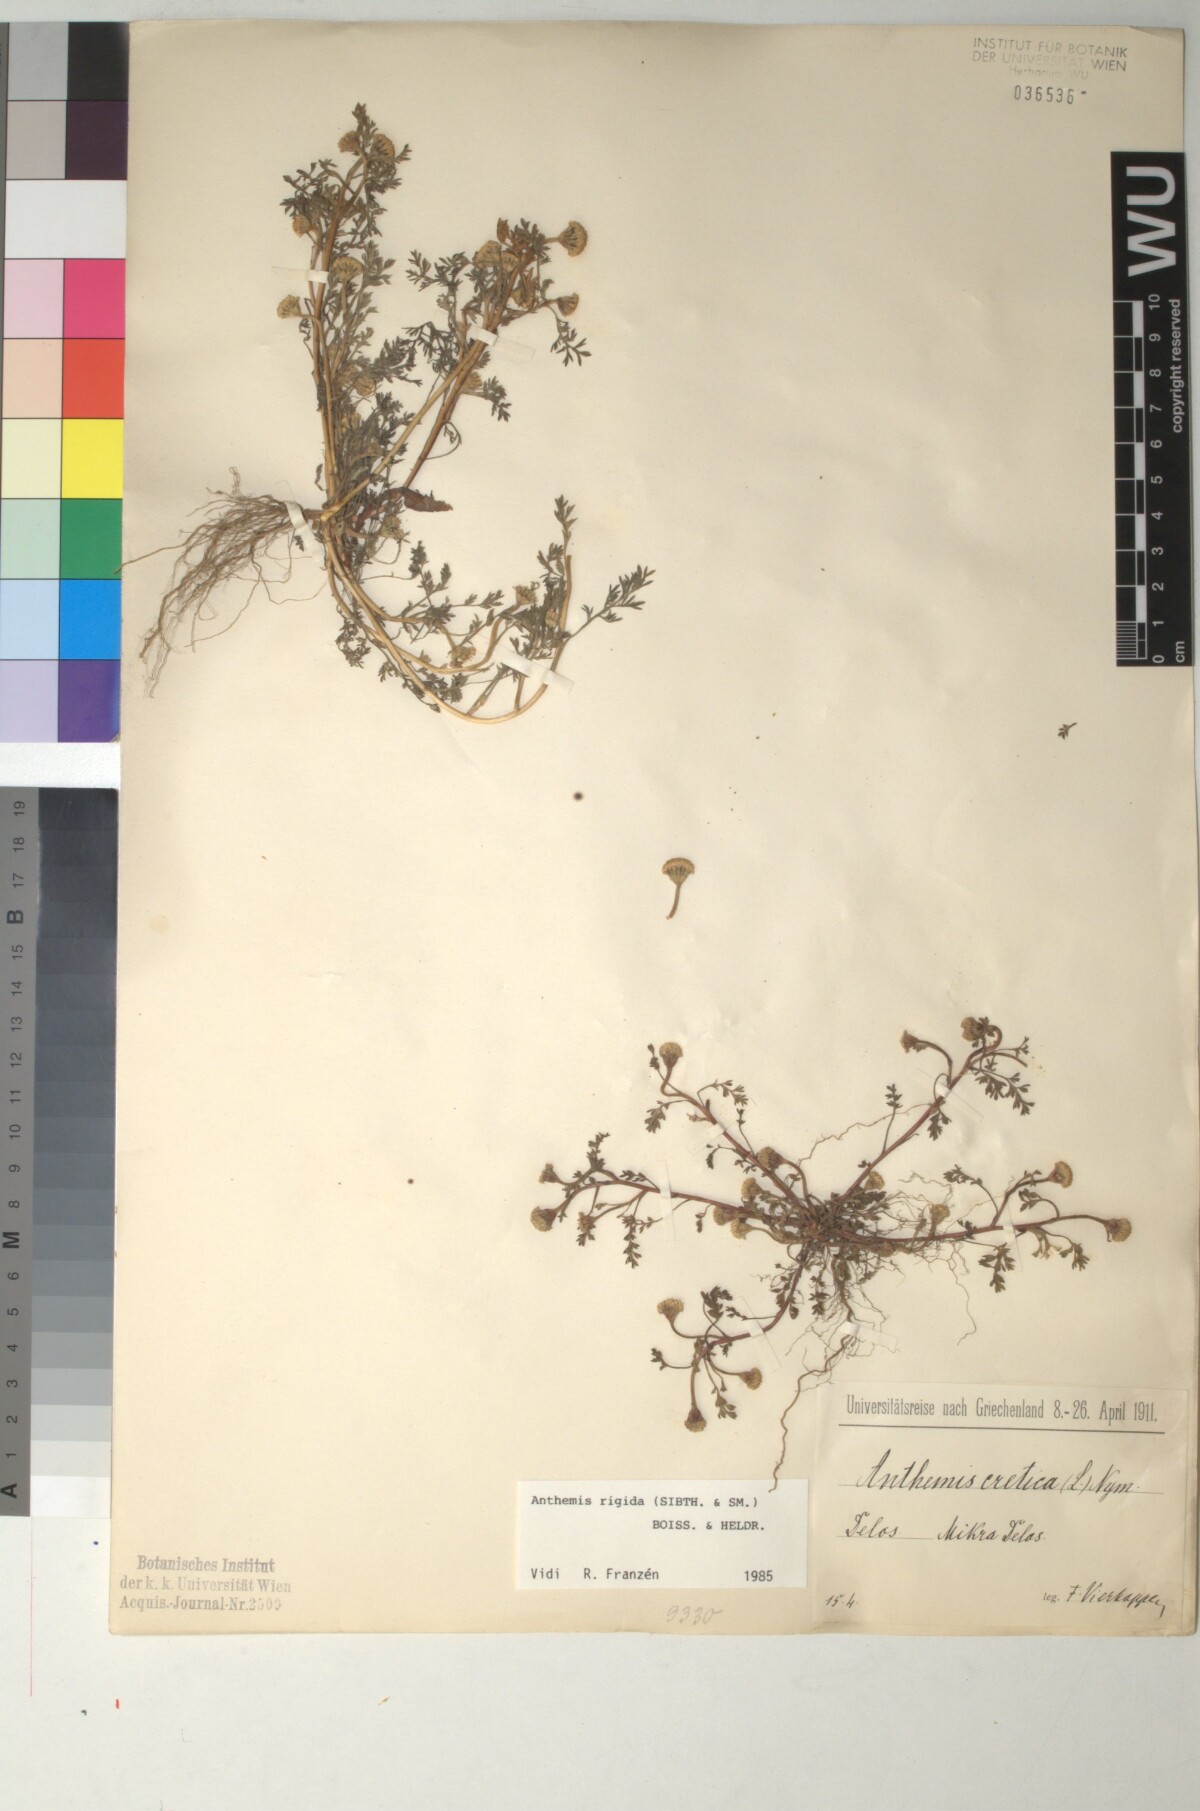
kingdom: Plantae
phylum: Tracheophyta
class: Magnoliopsida
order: Asterales
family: Asteraceae
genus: Anthemis
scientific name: Anthemis rigida
